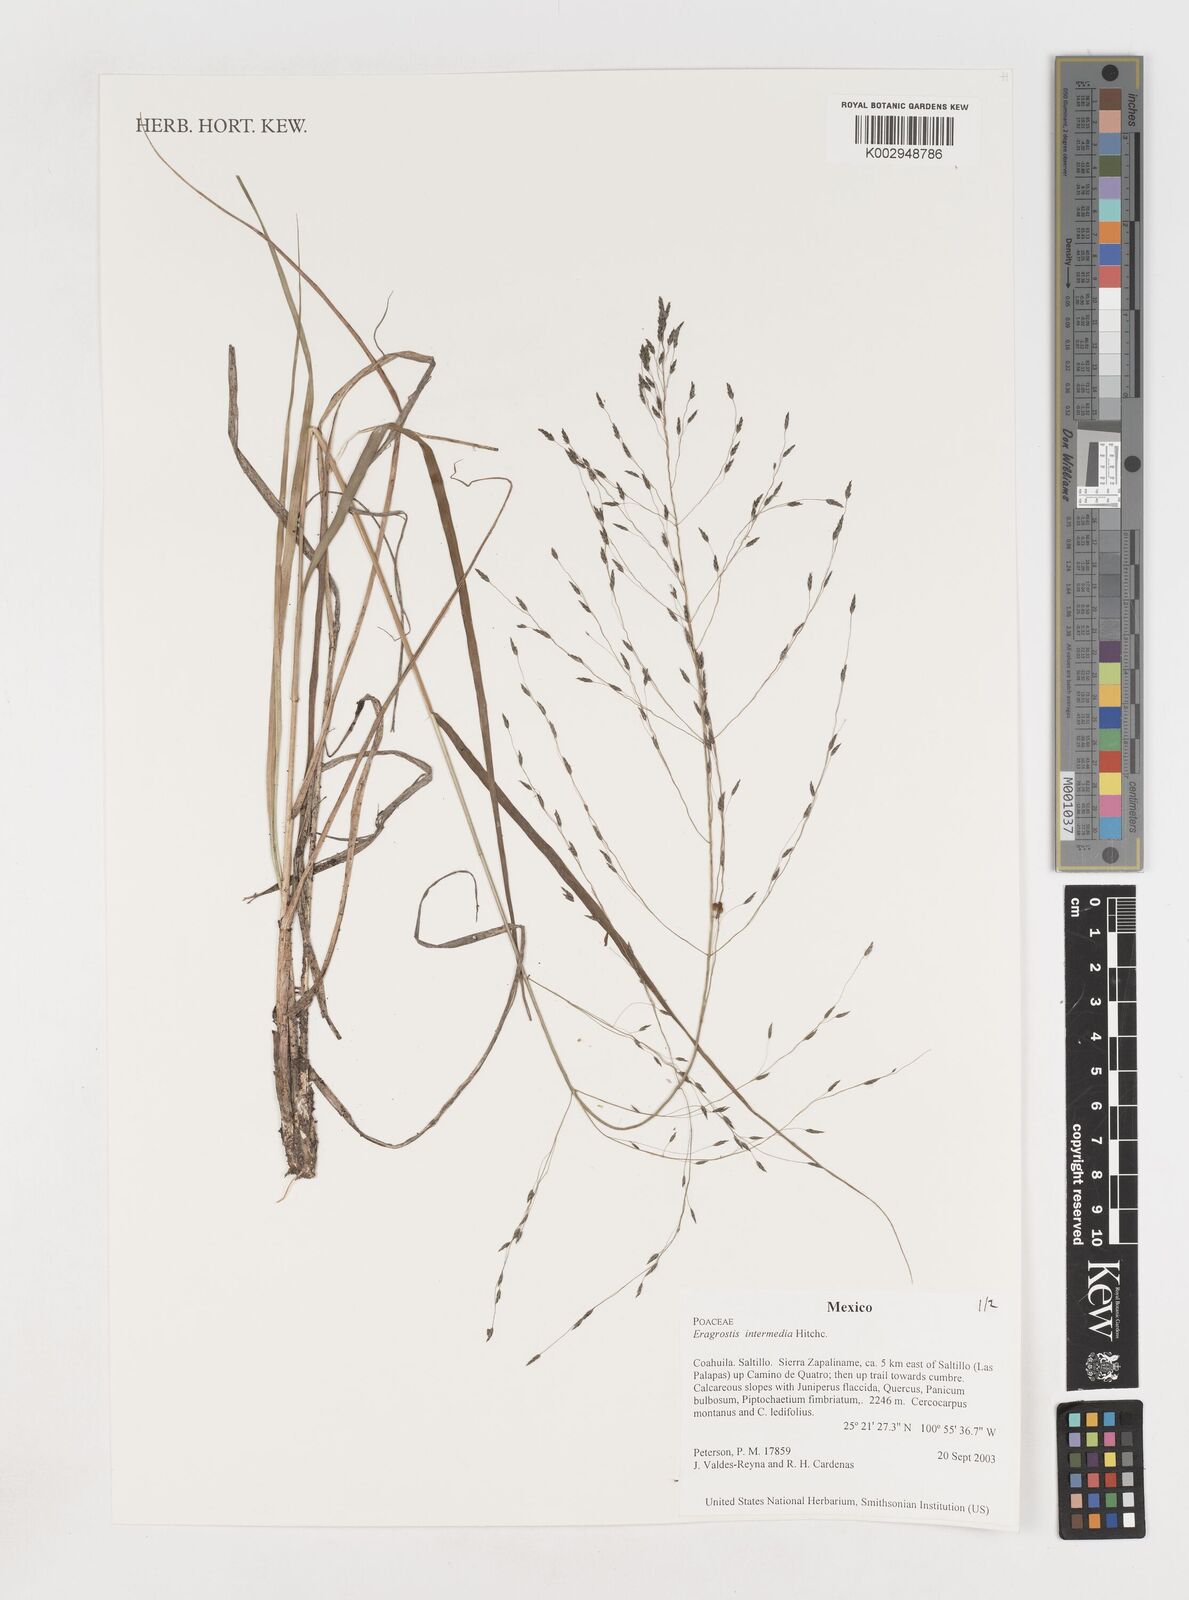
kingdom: Plantae
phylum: Tracheophyta
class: Liliopsida
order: Poales
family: Poaceae
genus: Eragrostis
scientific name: Eragrostis intermedia
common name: Plains love grass
